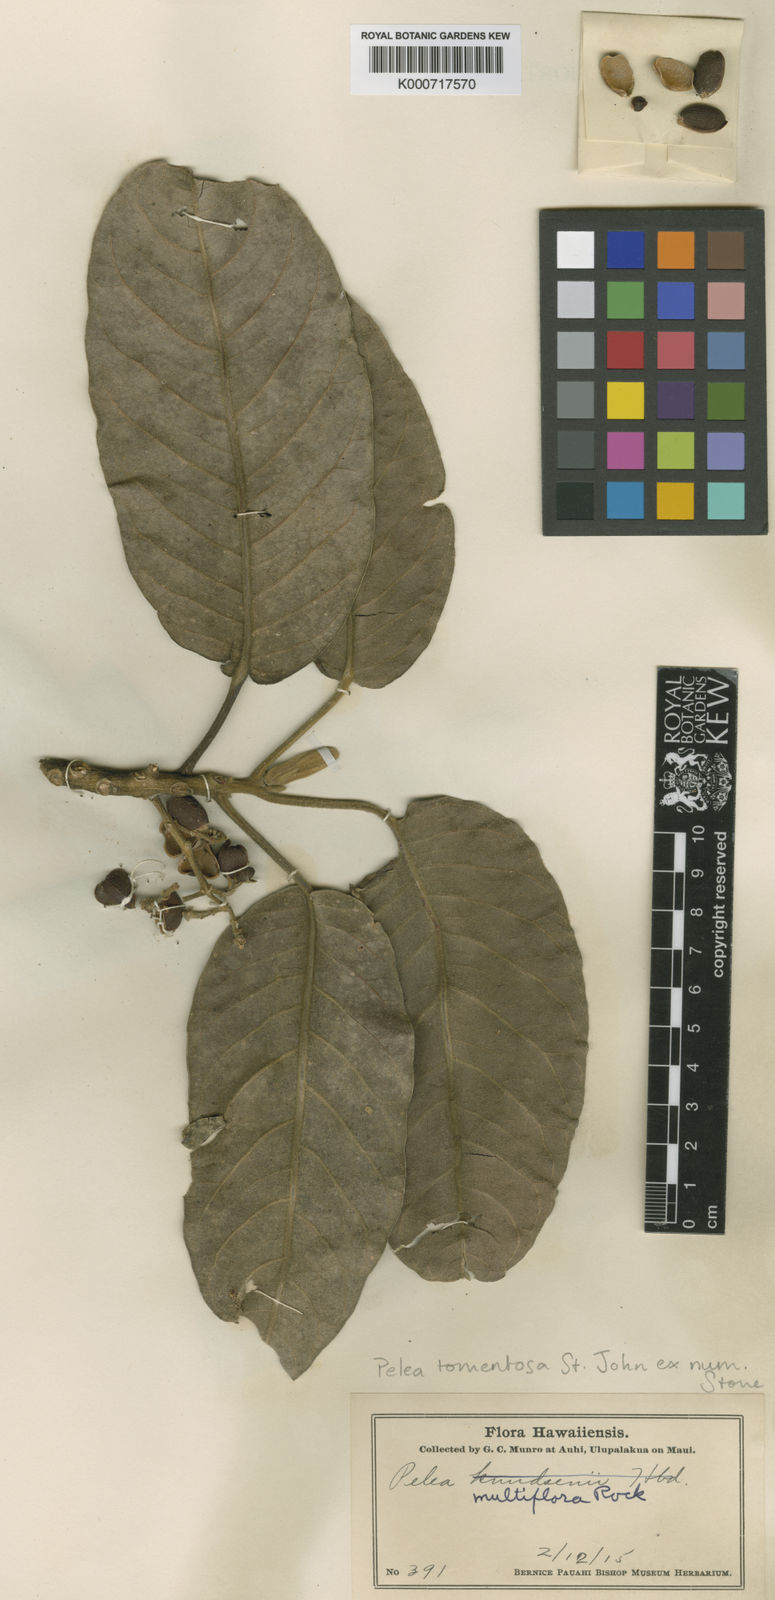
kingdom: Plantae
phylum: Tracheophyta
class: Magnoliopsida
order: Sapindales
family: Rutaceae
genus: Melicope
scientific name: Melicope knudsenii
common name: Knudsen's melicope
